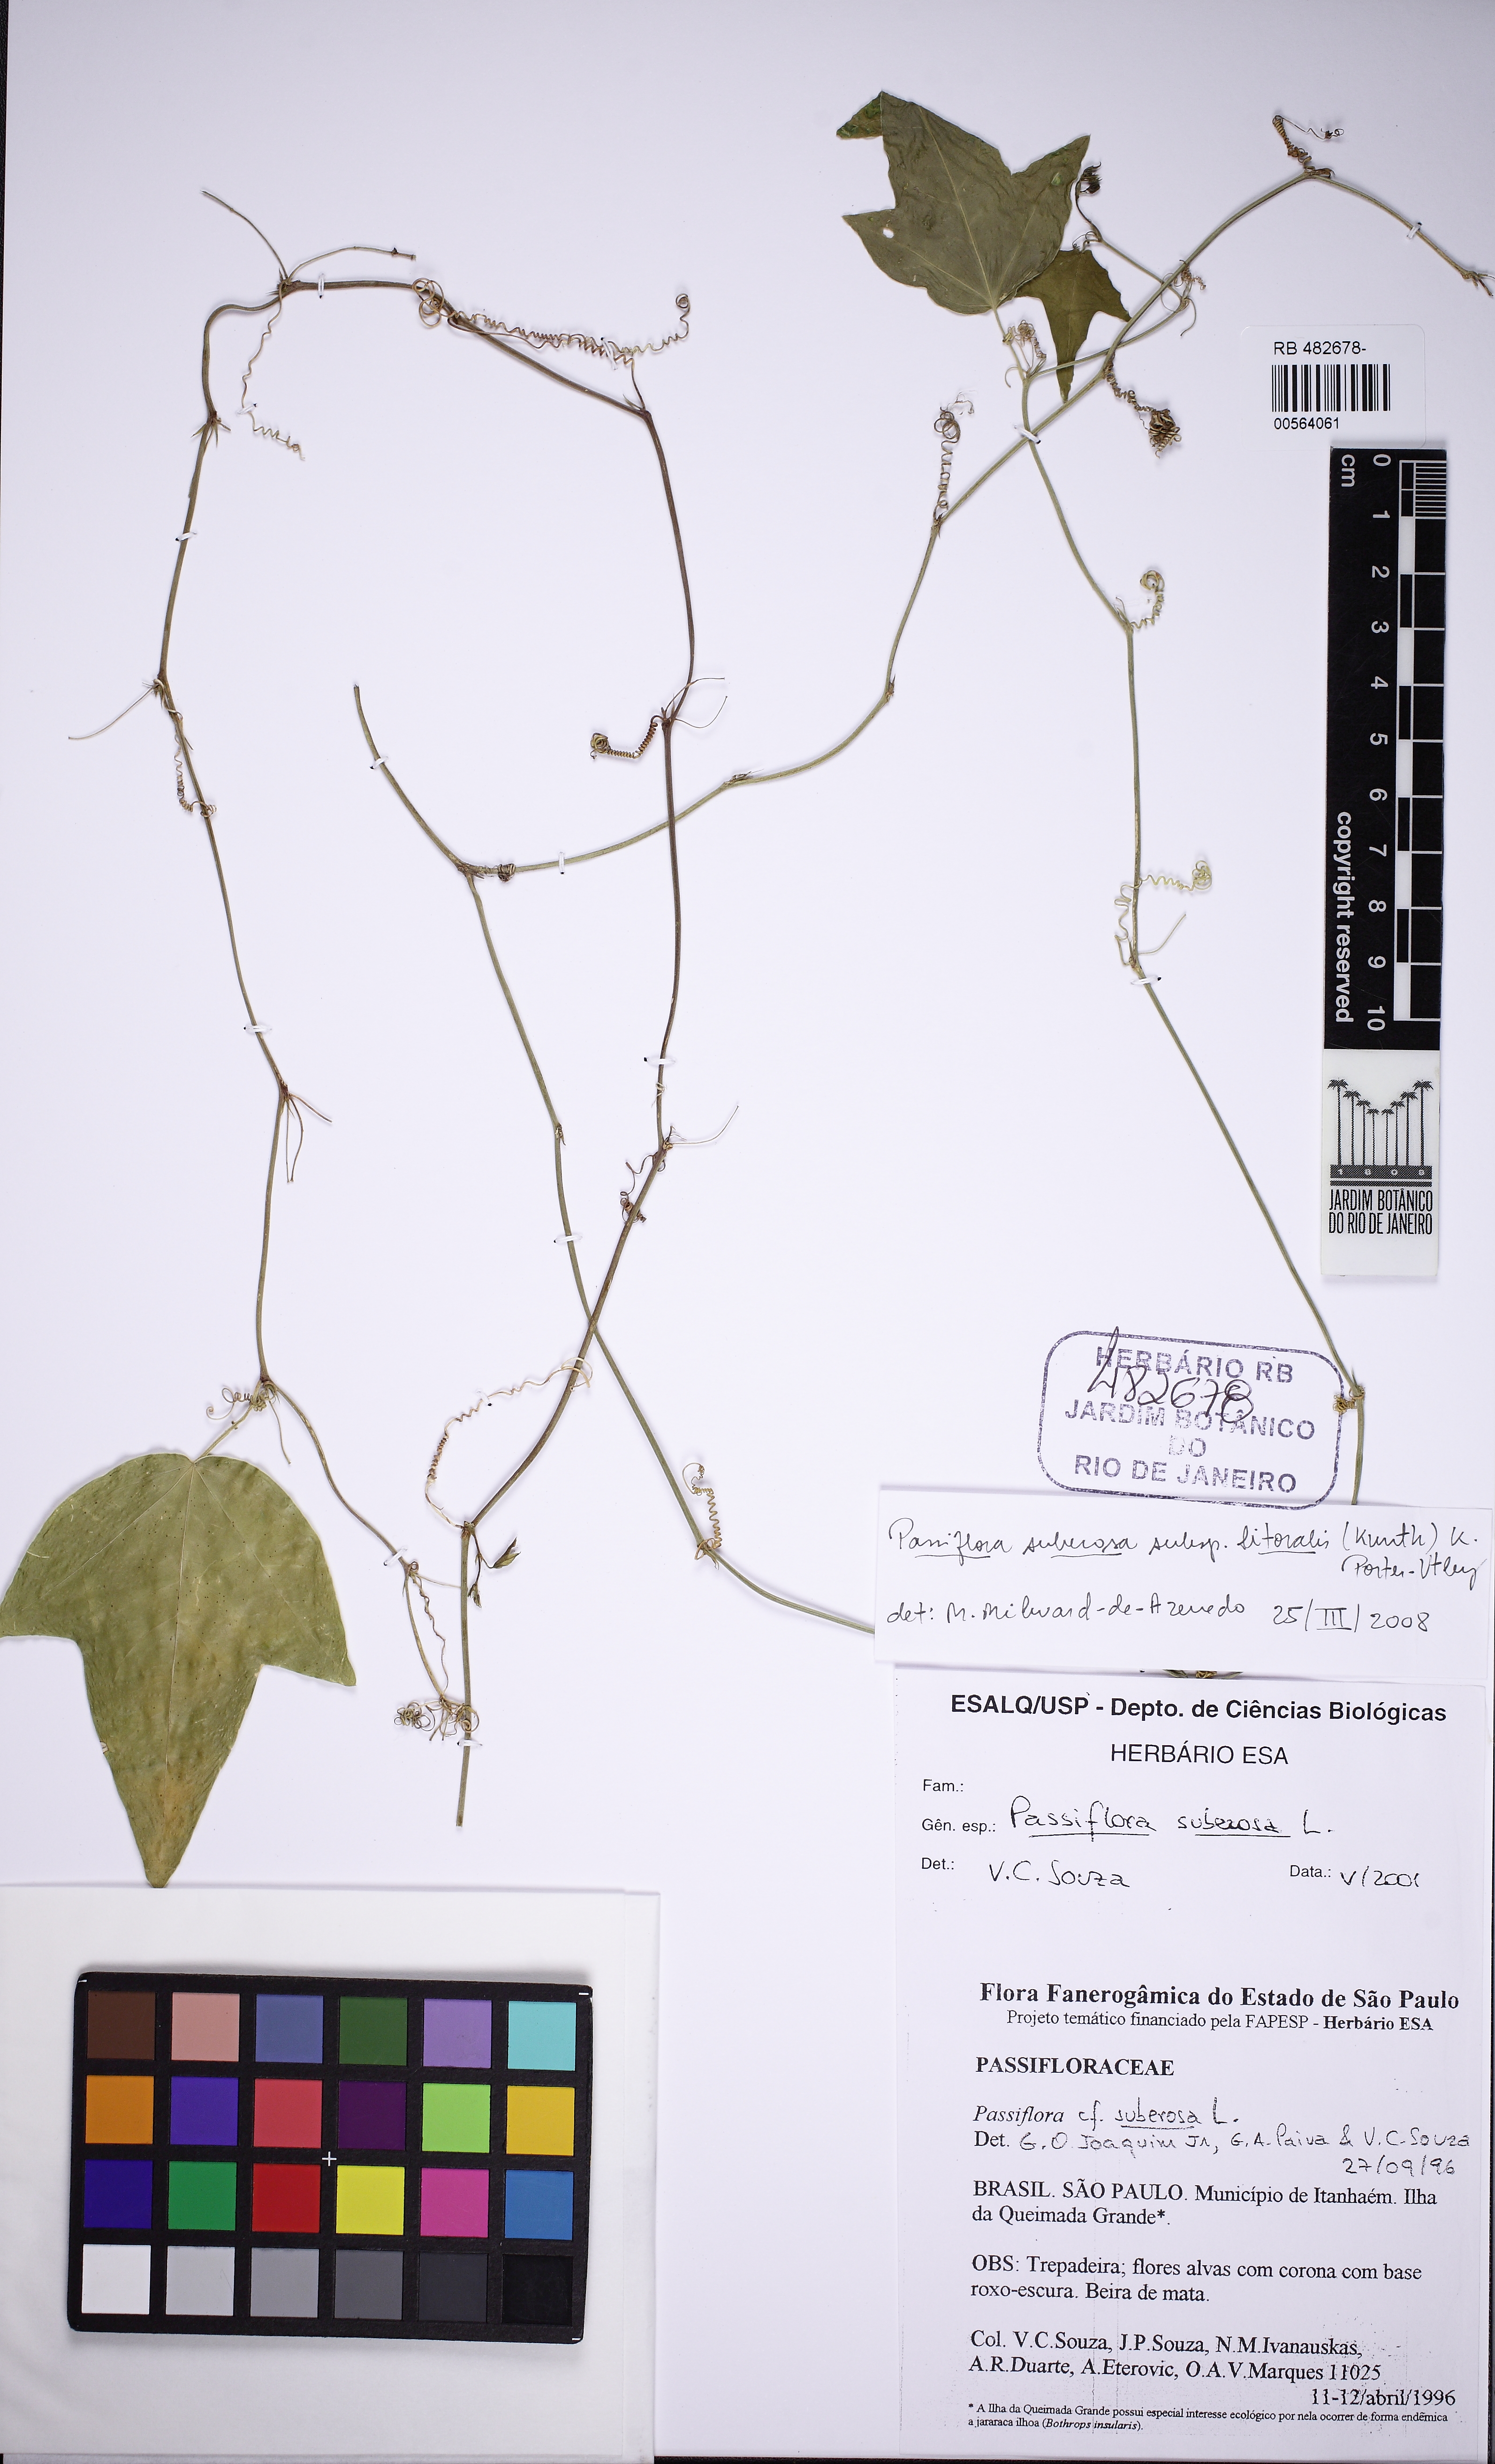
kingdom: Plantae
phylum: Tracheophyta
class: Magnoliopsida
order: Malpighiales
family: Passifloraceae
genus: Passiflora
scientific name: Passiflora suberosa
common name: Wild passionfruit
